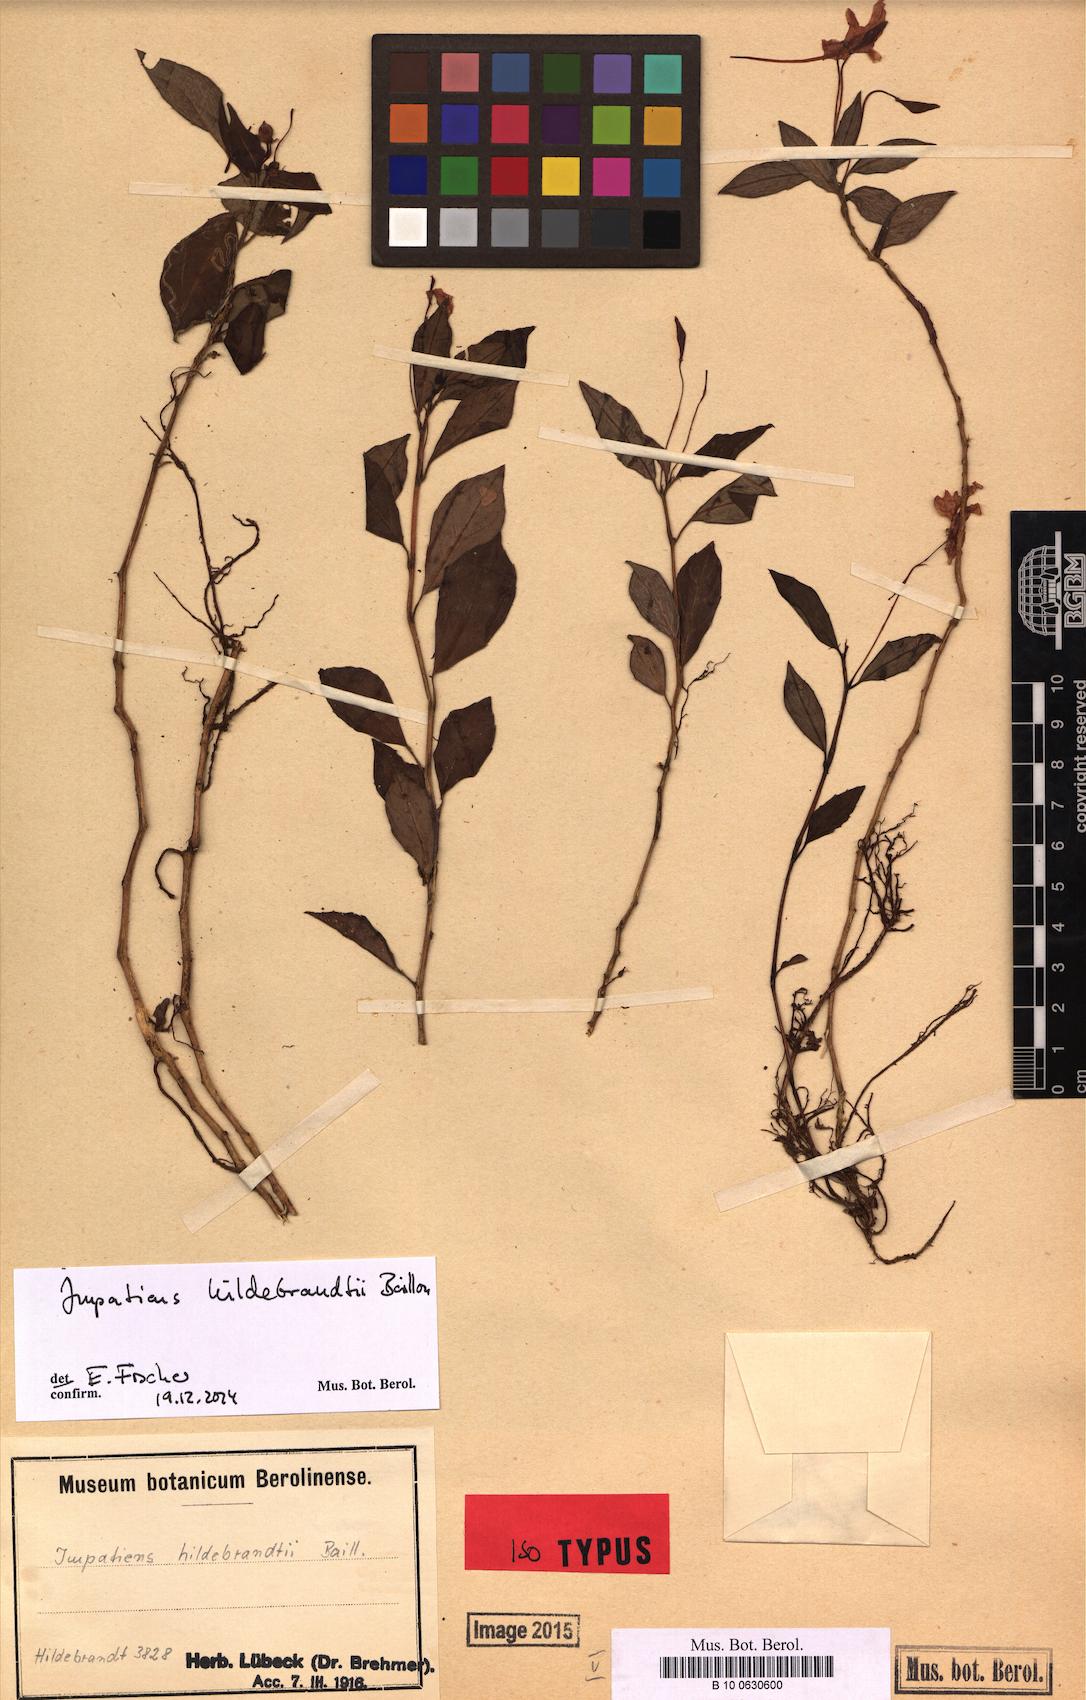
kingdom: Plantae
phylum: Tracheophyta
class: Magnoliopsida
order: Ericales
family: Balsaminaceae
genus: Impatiens
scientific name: Impatiens hildebrandtii
